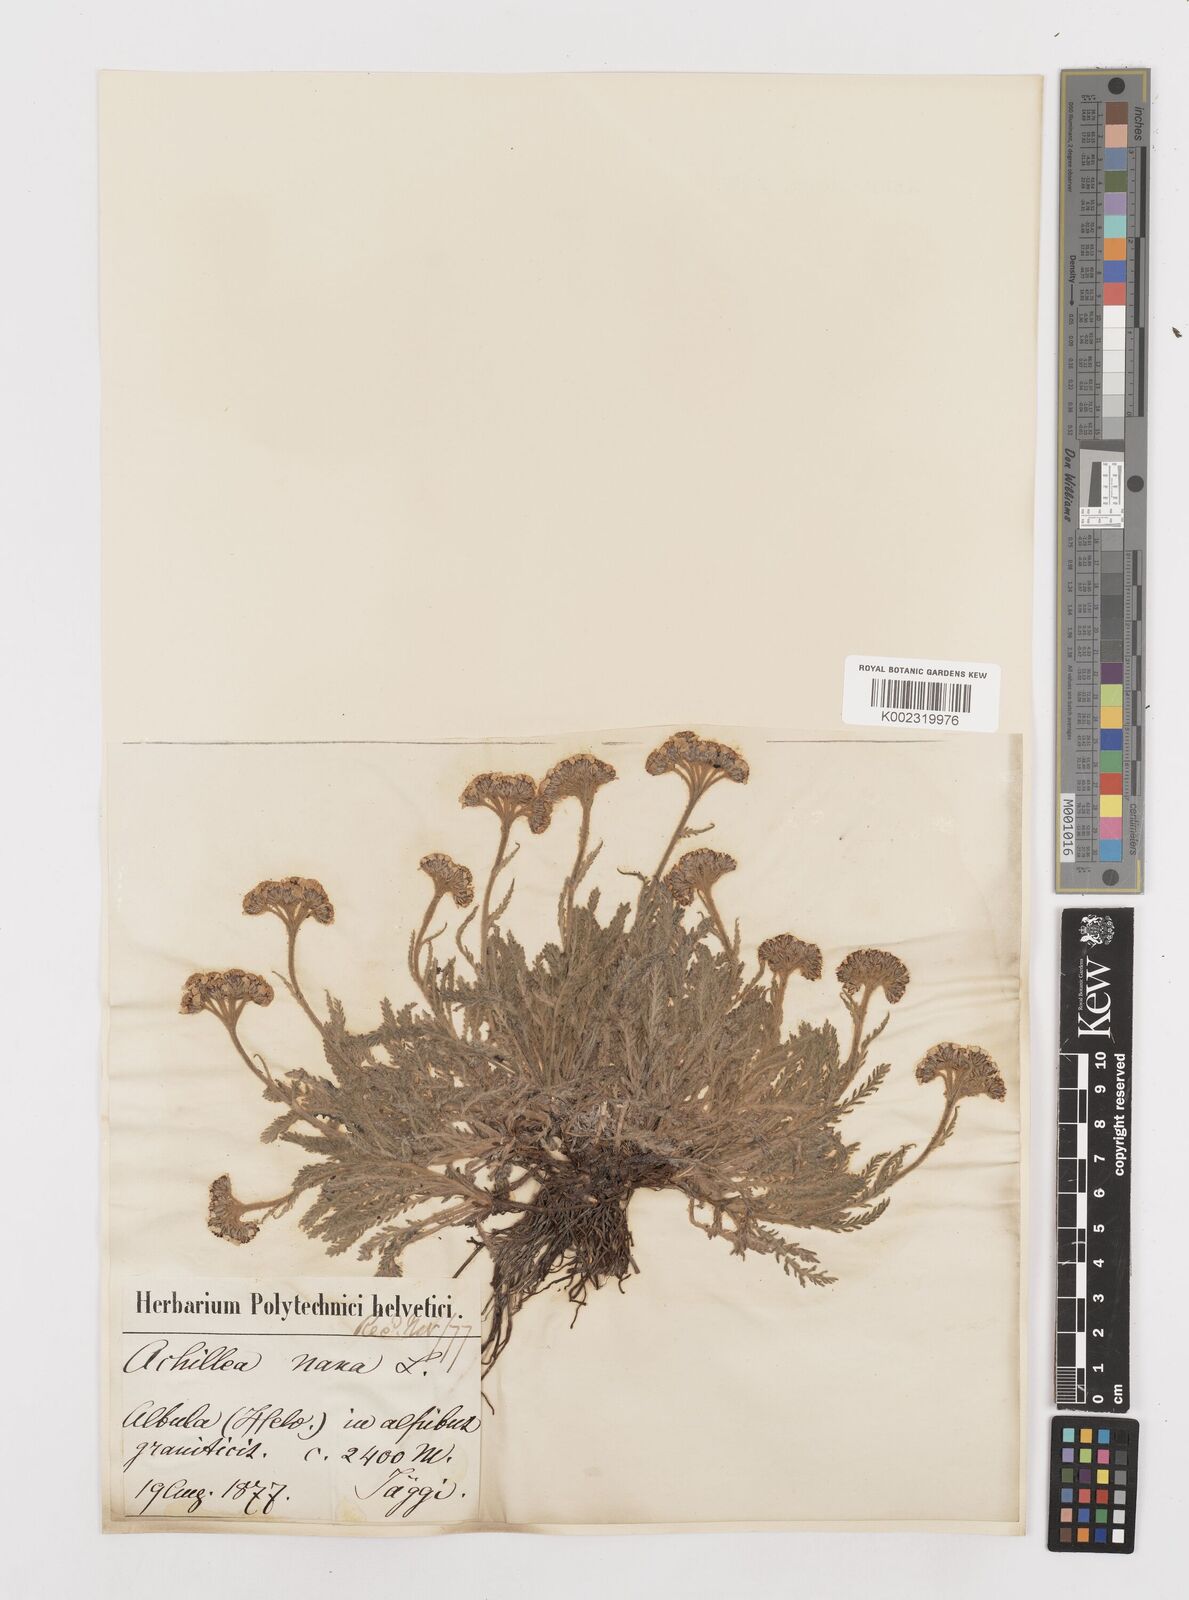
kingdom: Plantae
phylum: Tracheophyta
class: Magnoliopsida
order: Asterales
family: Asteraceae
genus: Achillea
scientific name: Achillea erba-rotta
